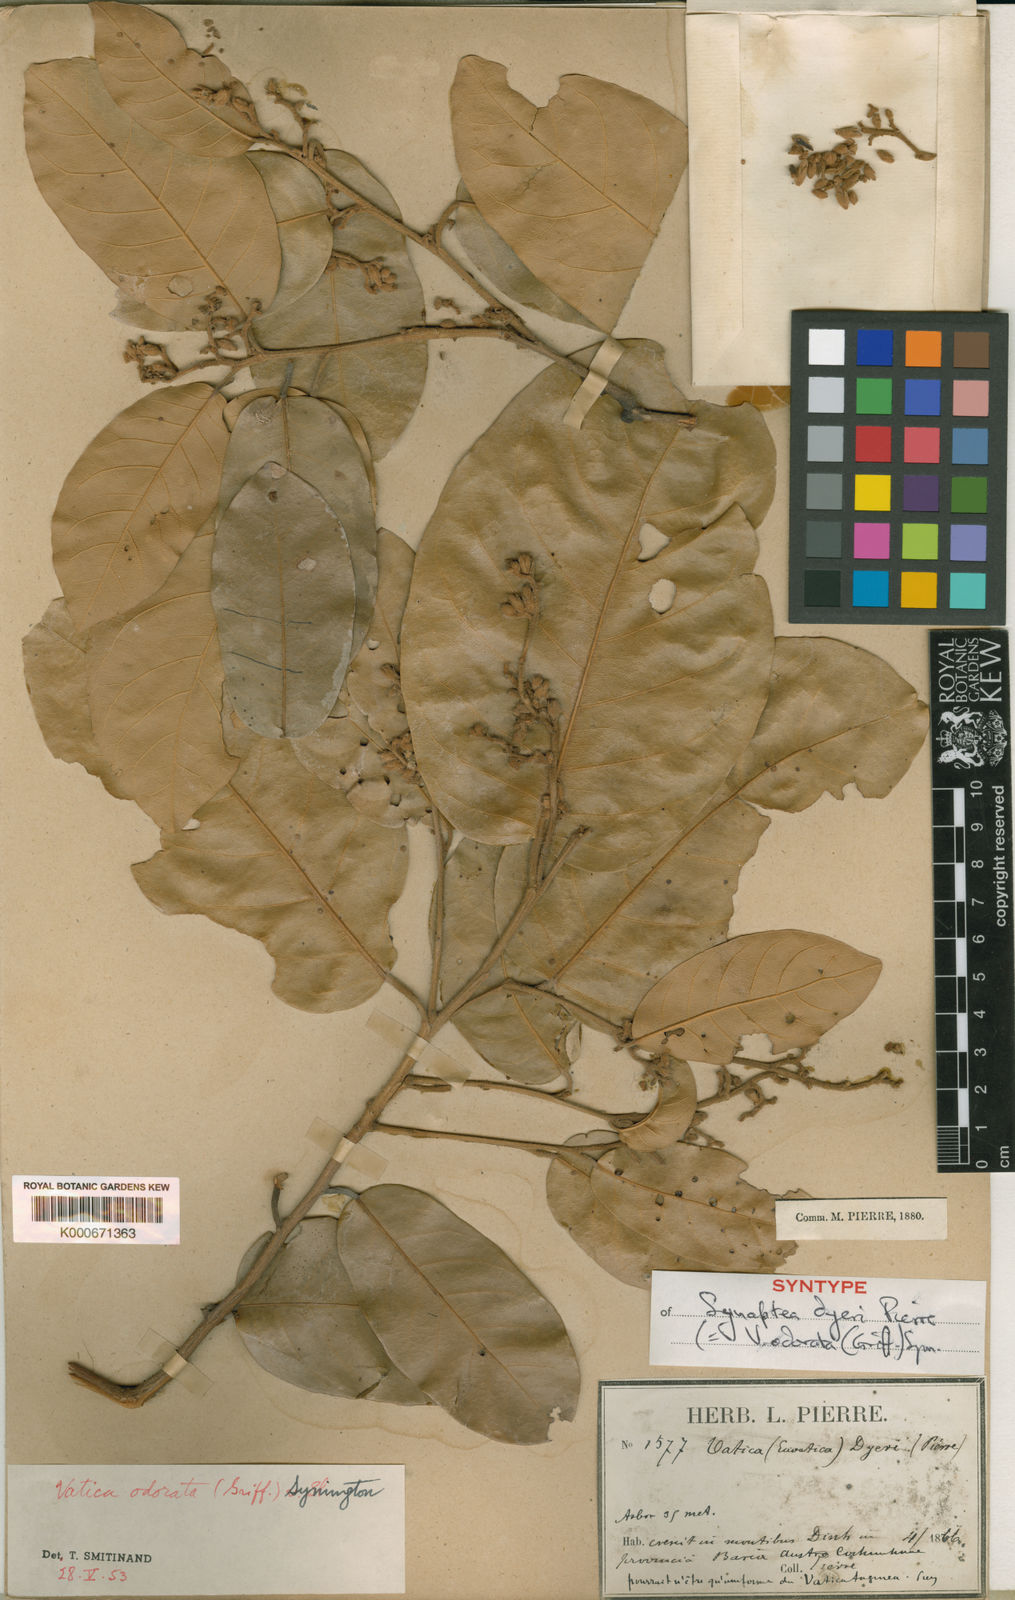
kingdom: Plantae
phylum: Tracheophyta
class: Magnoliopsida
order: Malvales
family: Dipterocarpaceae
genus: Vatica
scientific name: Vatica odorata
